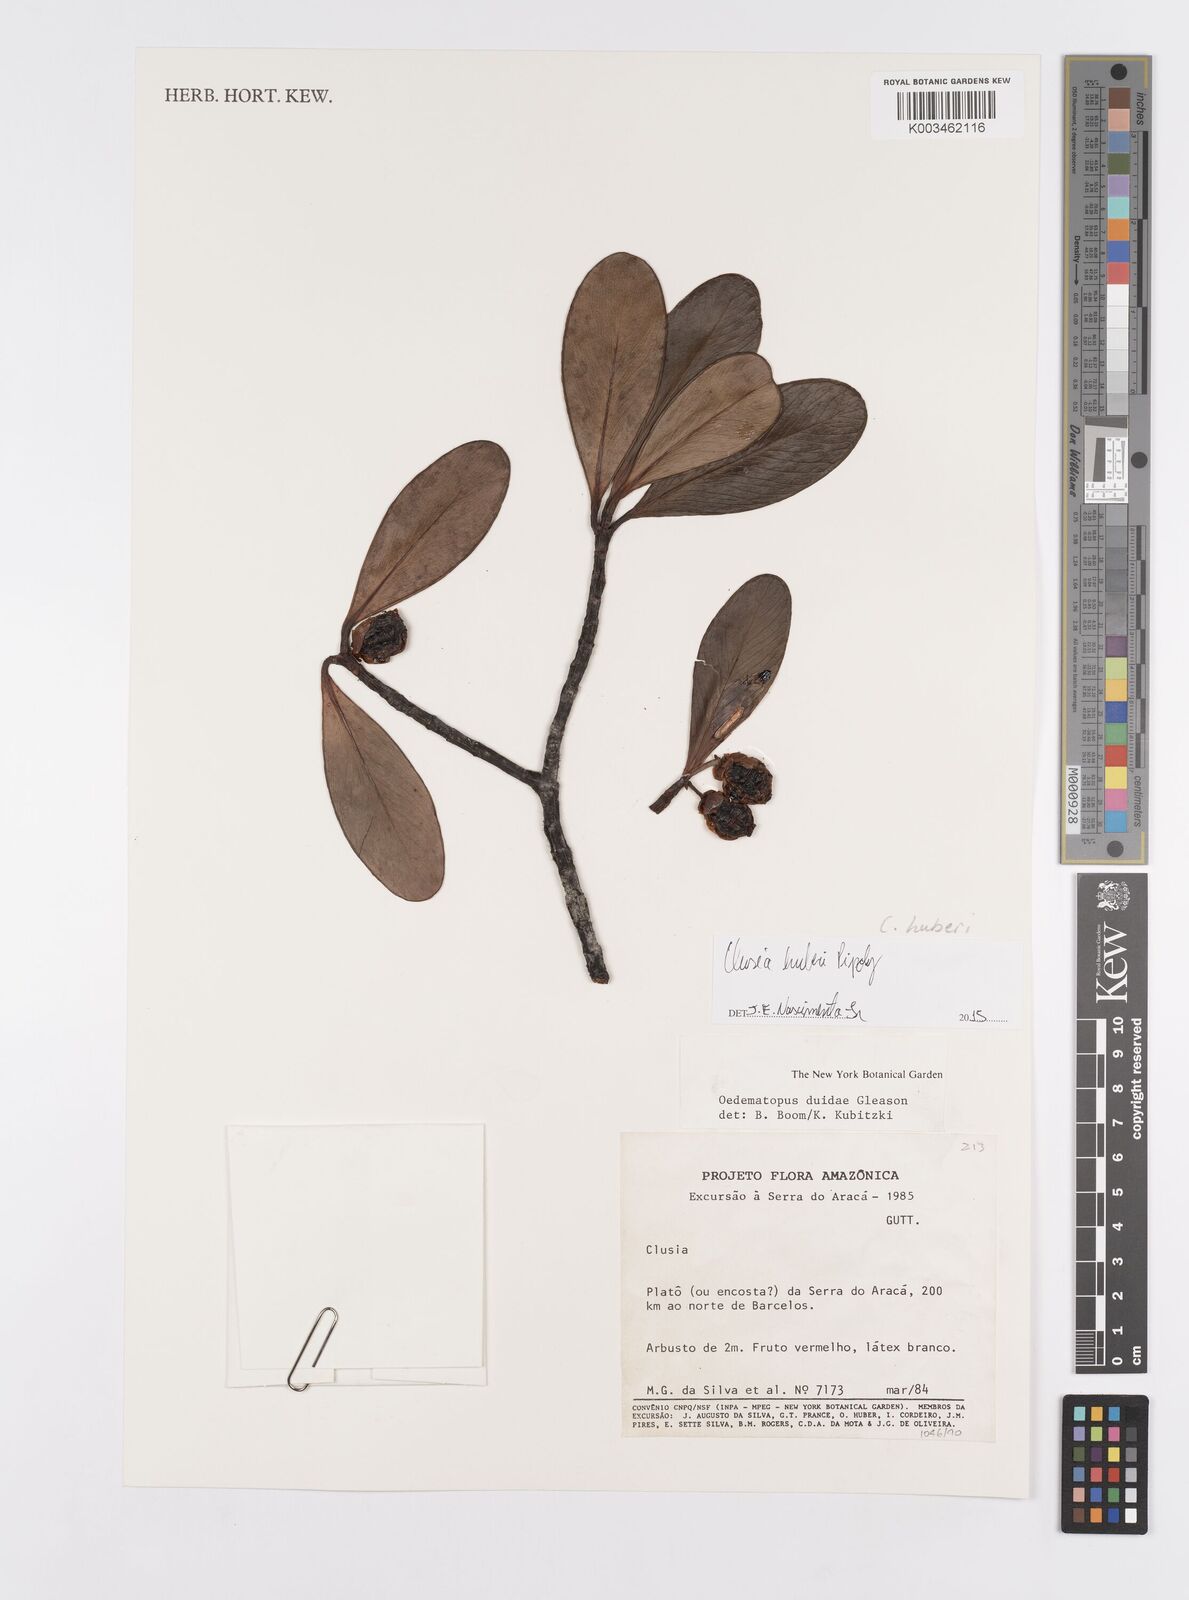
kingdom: Plantae
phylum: Tracheophyta
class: Magnoliopsida
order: Malpighiales
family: Clusiaceae
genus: Clusia
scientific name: Clusia huberi
